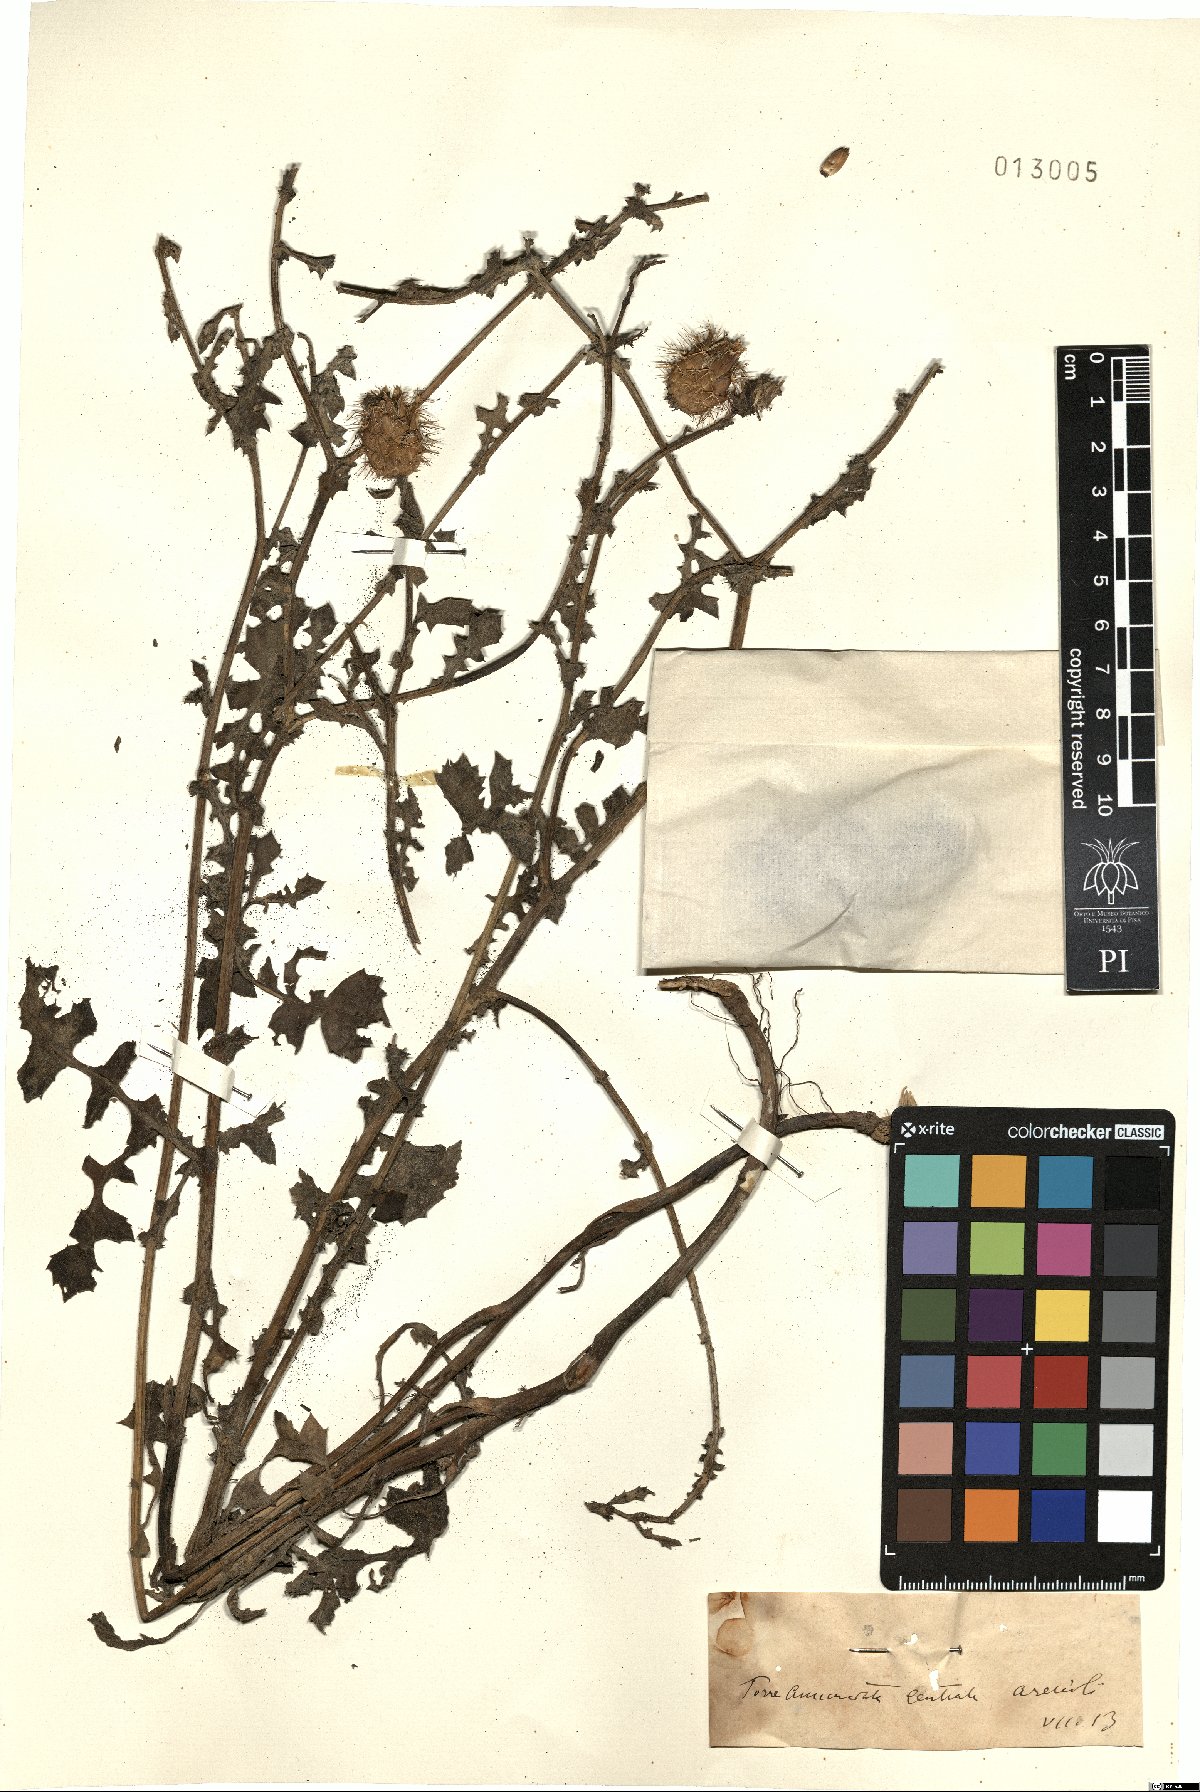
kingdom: Plantae
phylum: Tracheophyta
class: Magnoliopsida
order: Asterales
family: Asteraceae
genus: Centaurea
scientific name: Centaurea
